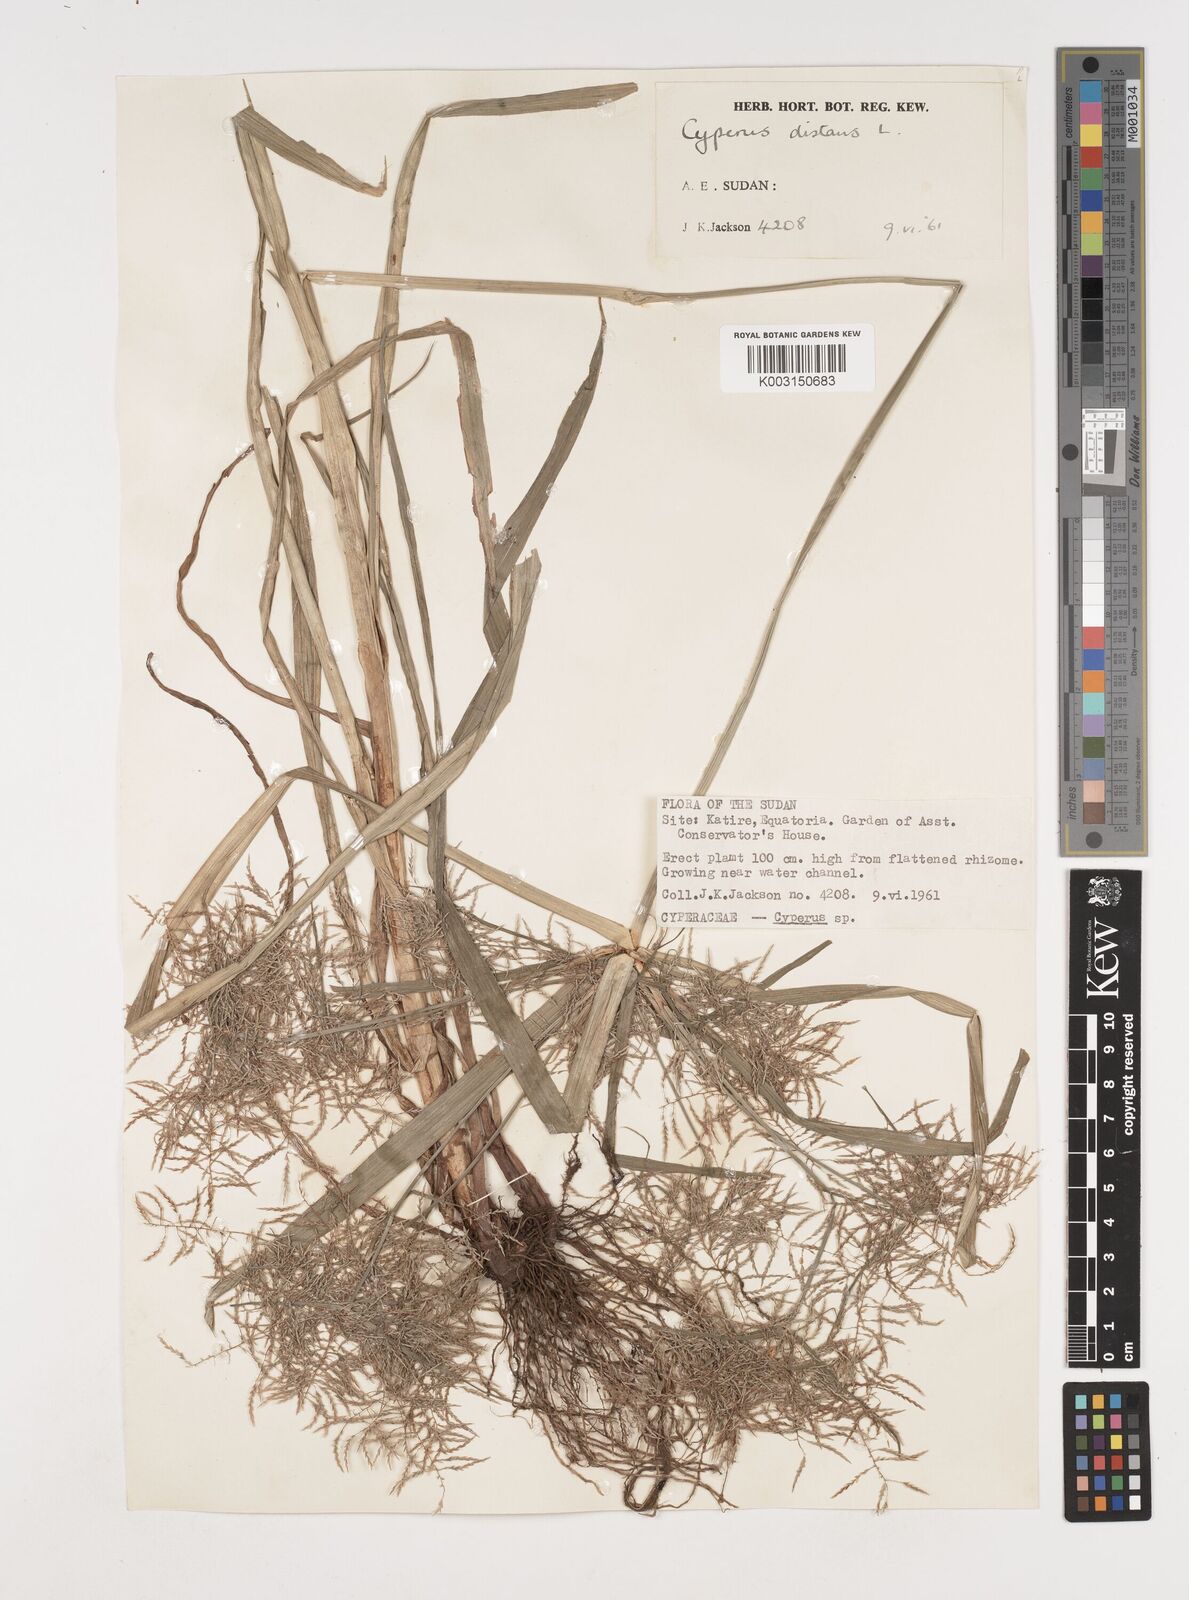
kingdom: Plantae
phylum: Tracheophyta
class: Liliopsida
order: Poales
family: Cyperaceae
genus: Cyperus
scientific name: Cyperus distans
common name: Slender cyperus
